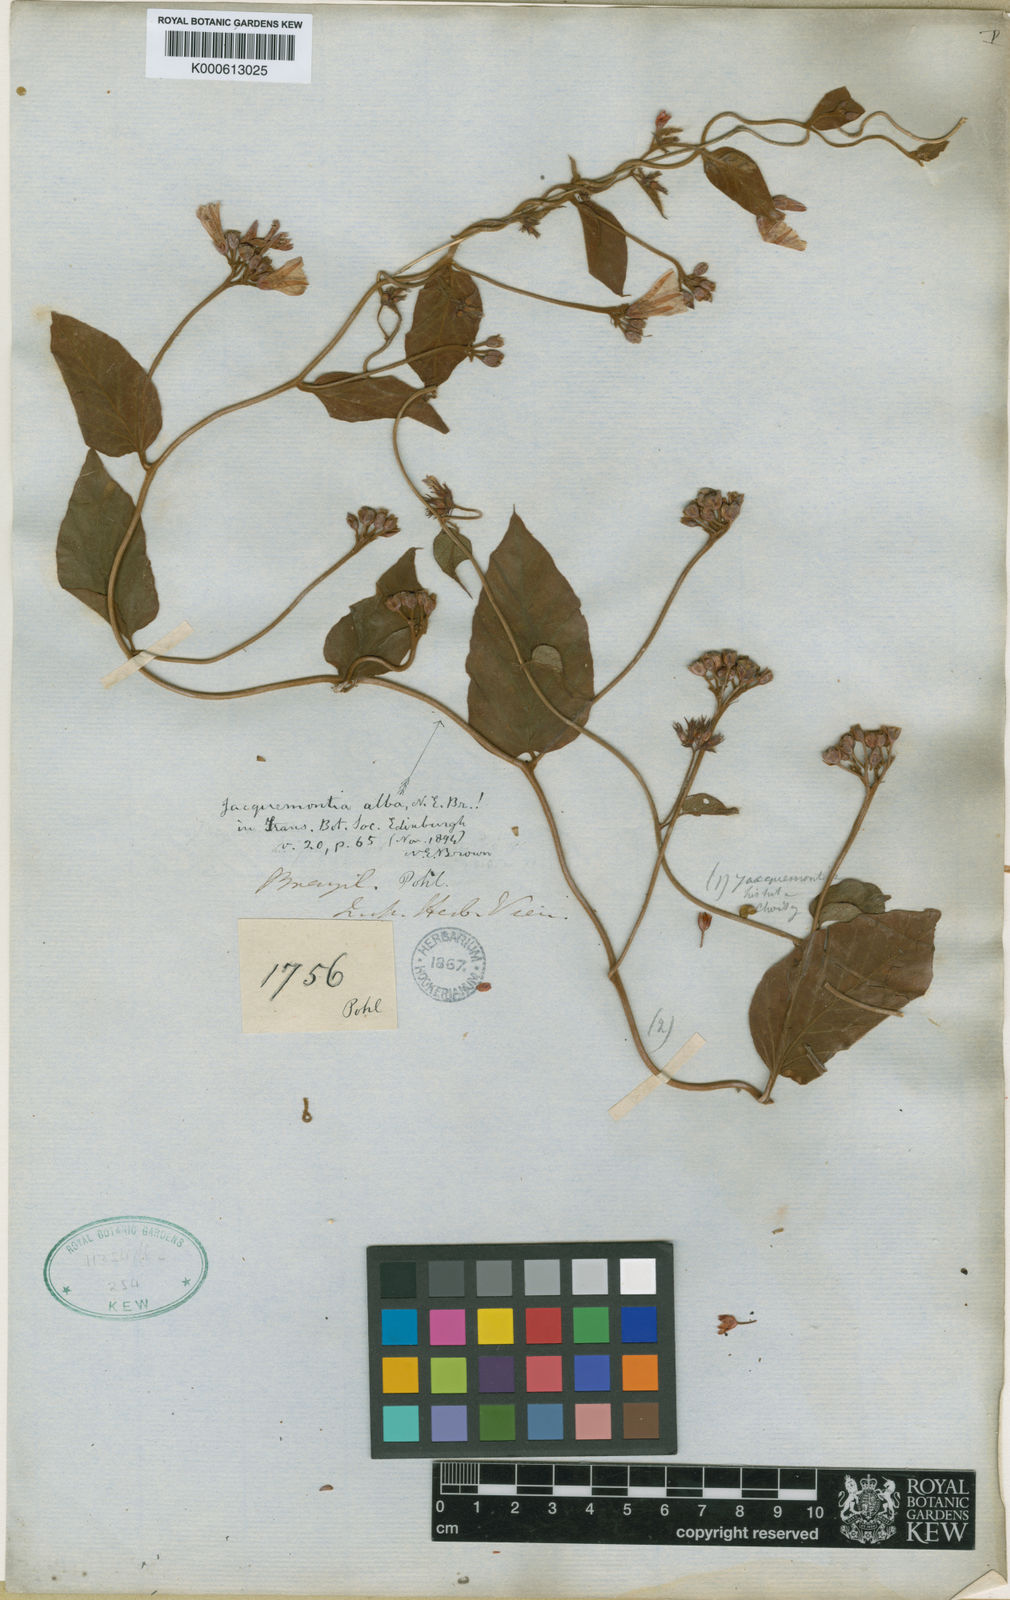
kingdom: Plantae
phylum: Tracheophyta
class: Magnoliopsida
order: Solanales
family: Convolvulaceae
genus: Jacquemontia
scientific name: Jacquemontia martii
